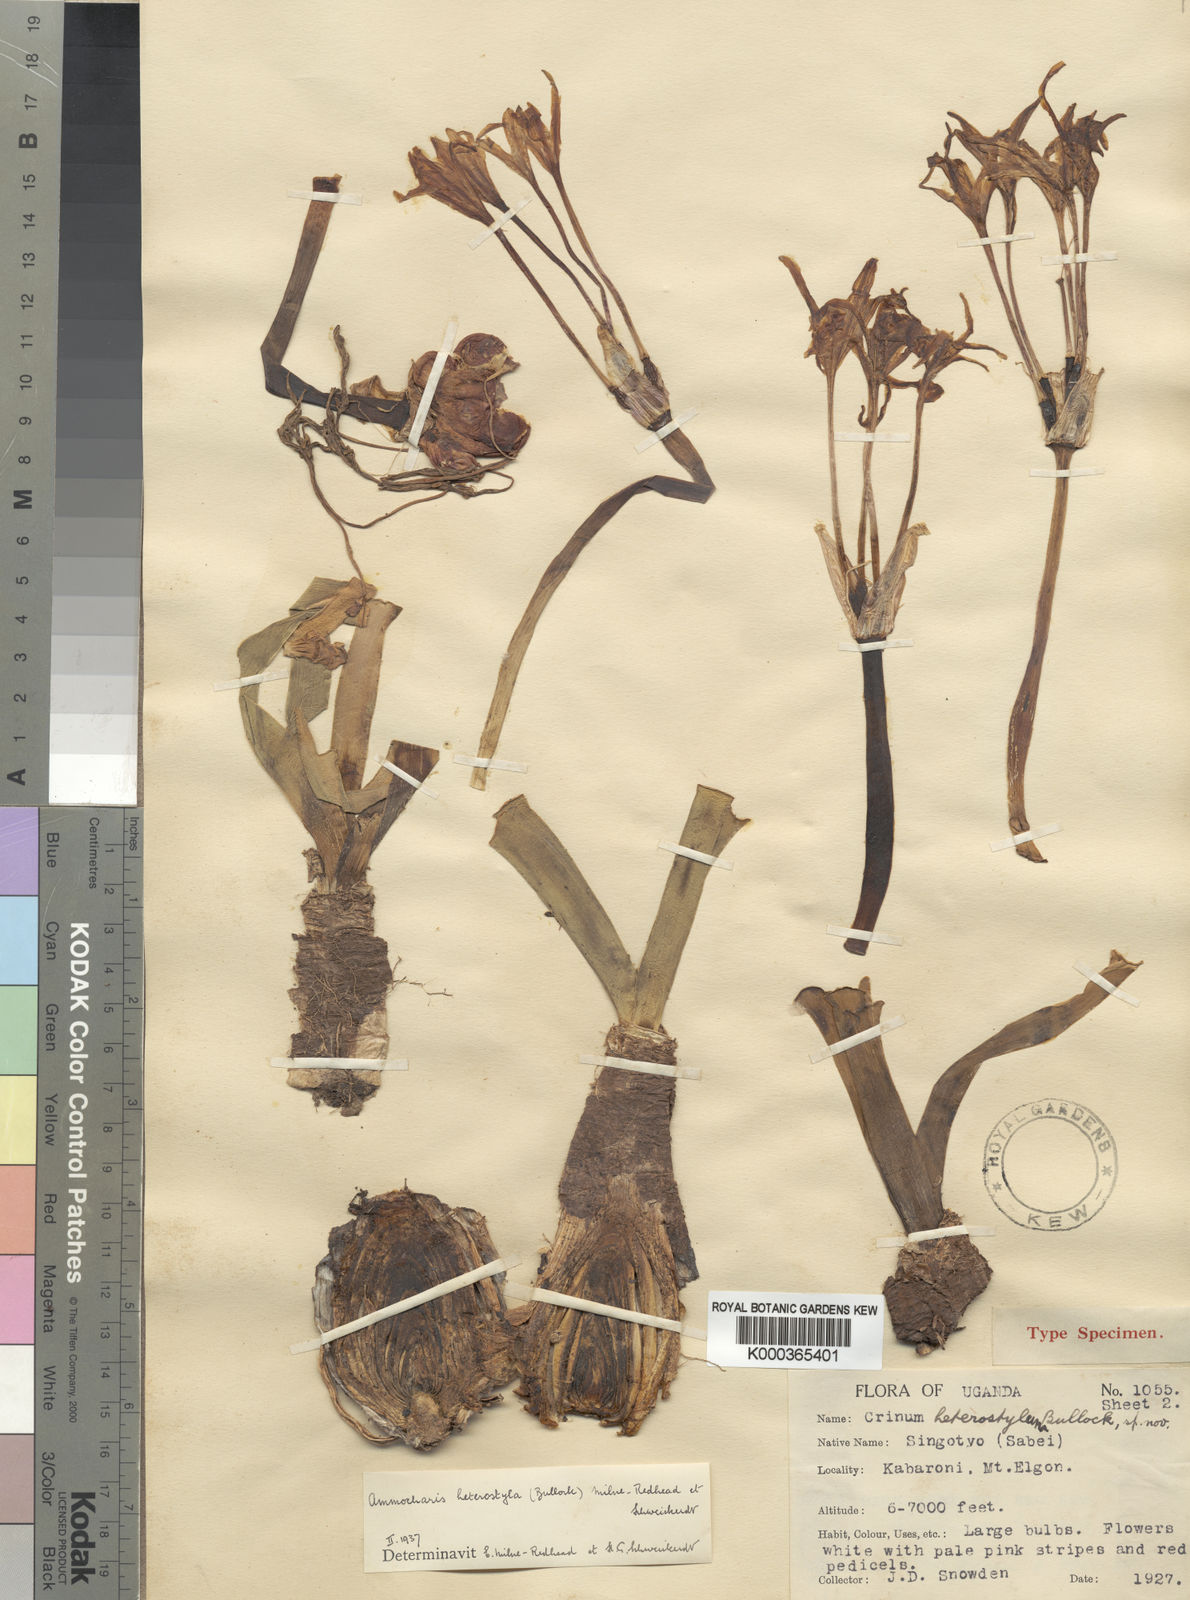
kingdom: Plantae
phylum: Tracheophyta
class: Liliopsida
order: Asparagales
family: Amaryllidaceae
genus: Ammocharis
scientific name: Ammocharis angolensis
